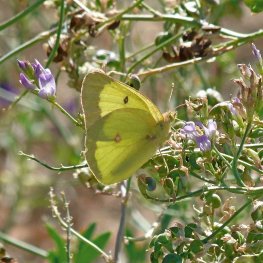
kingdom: Animalia
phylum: Arthropoda
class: Insecta
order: Lepidoptera
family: Pieridae
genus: Colias
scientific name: Colias philodice
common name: Clouded Sulphur
